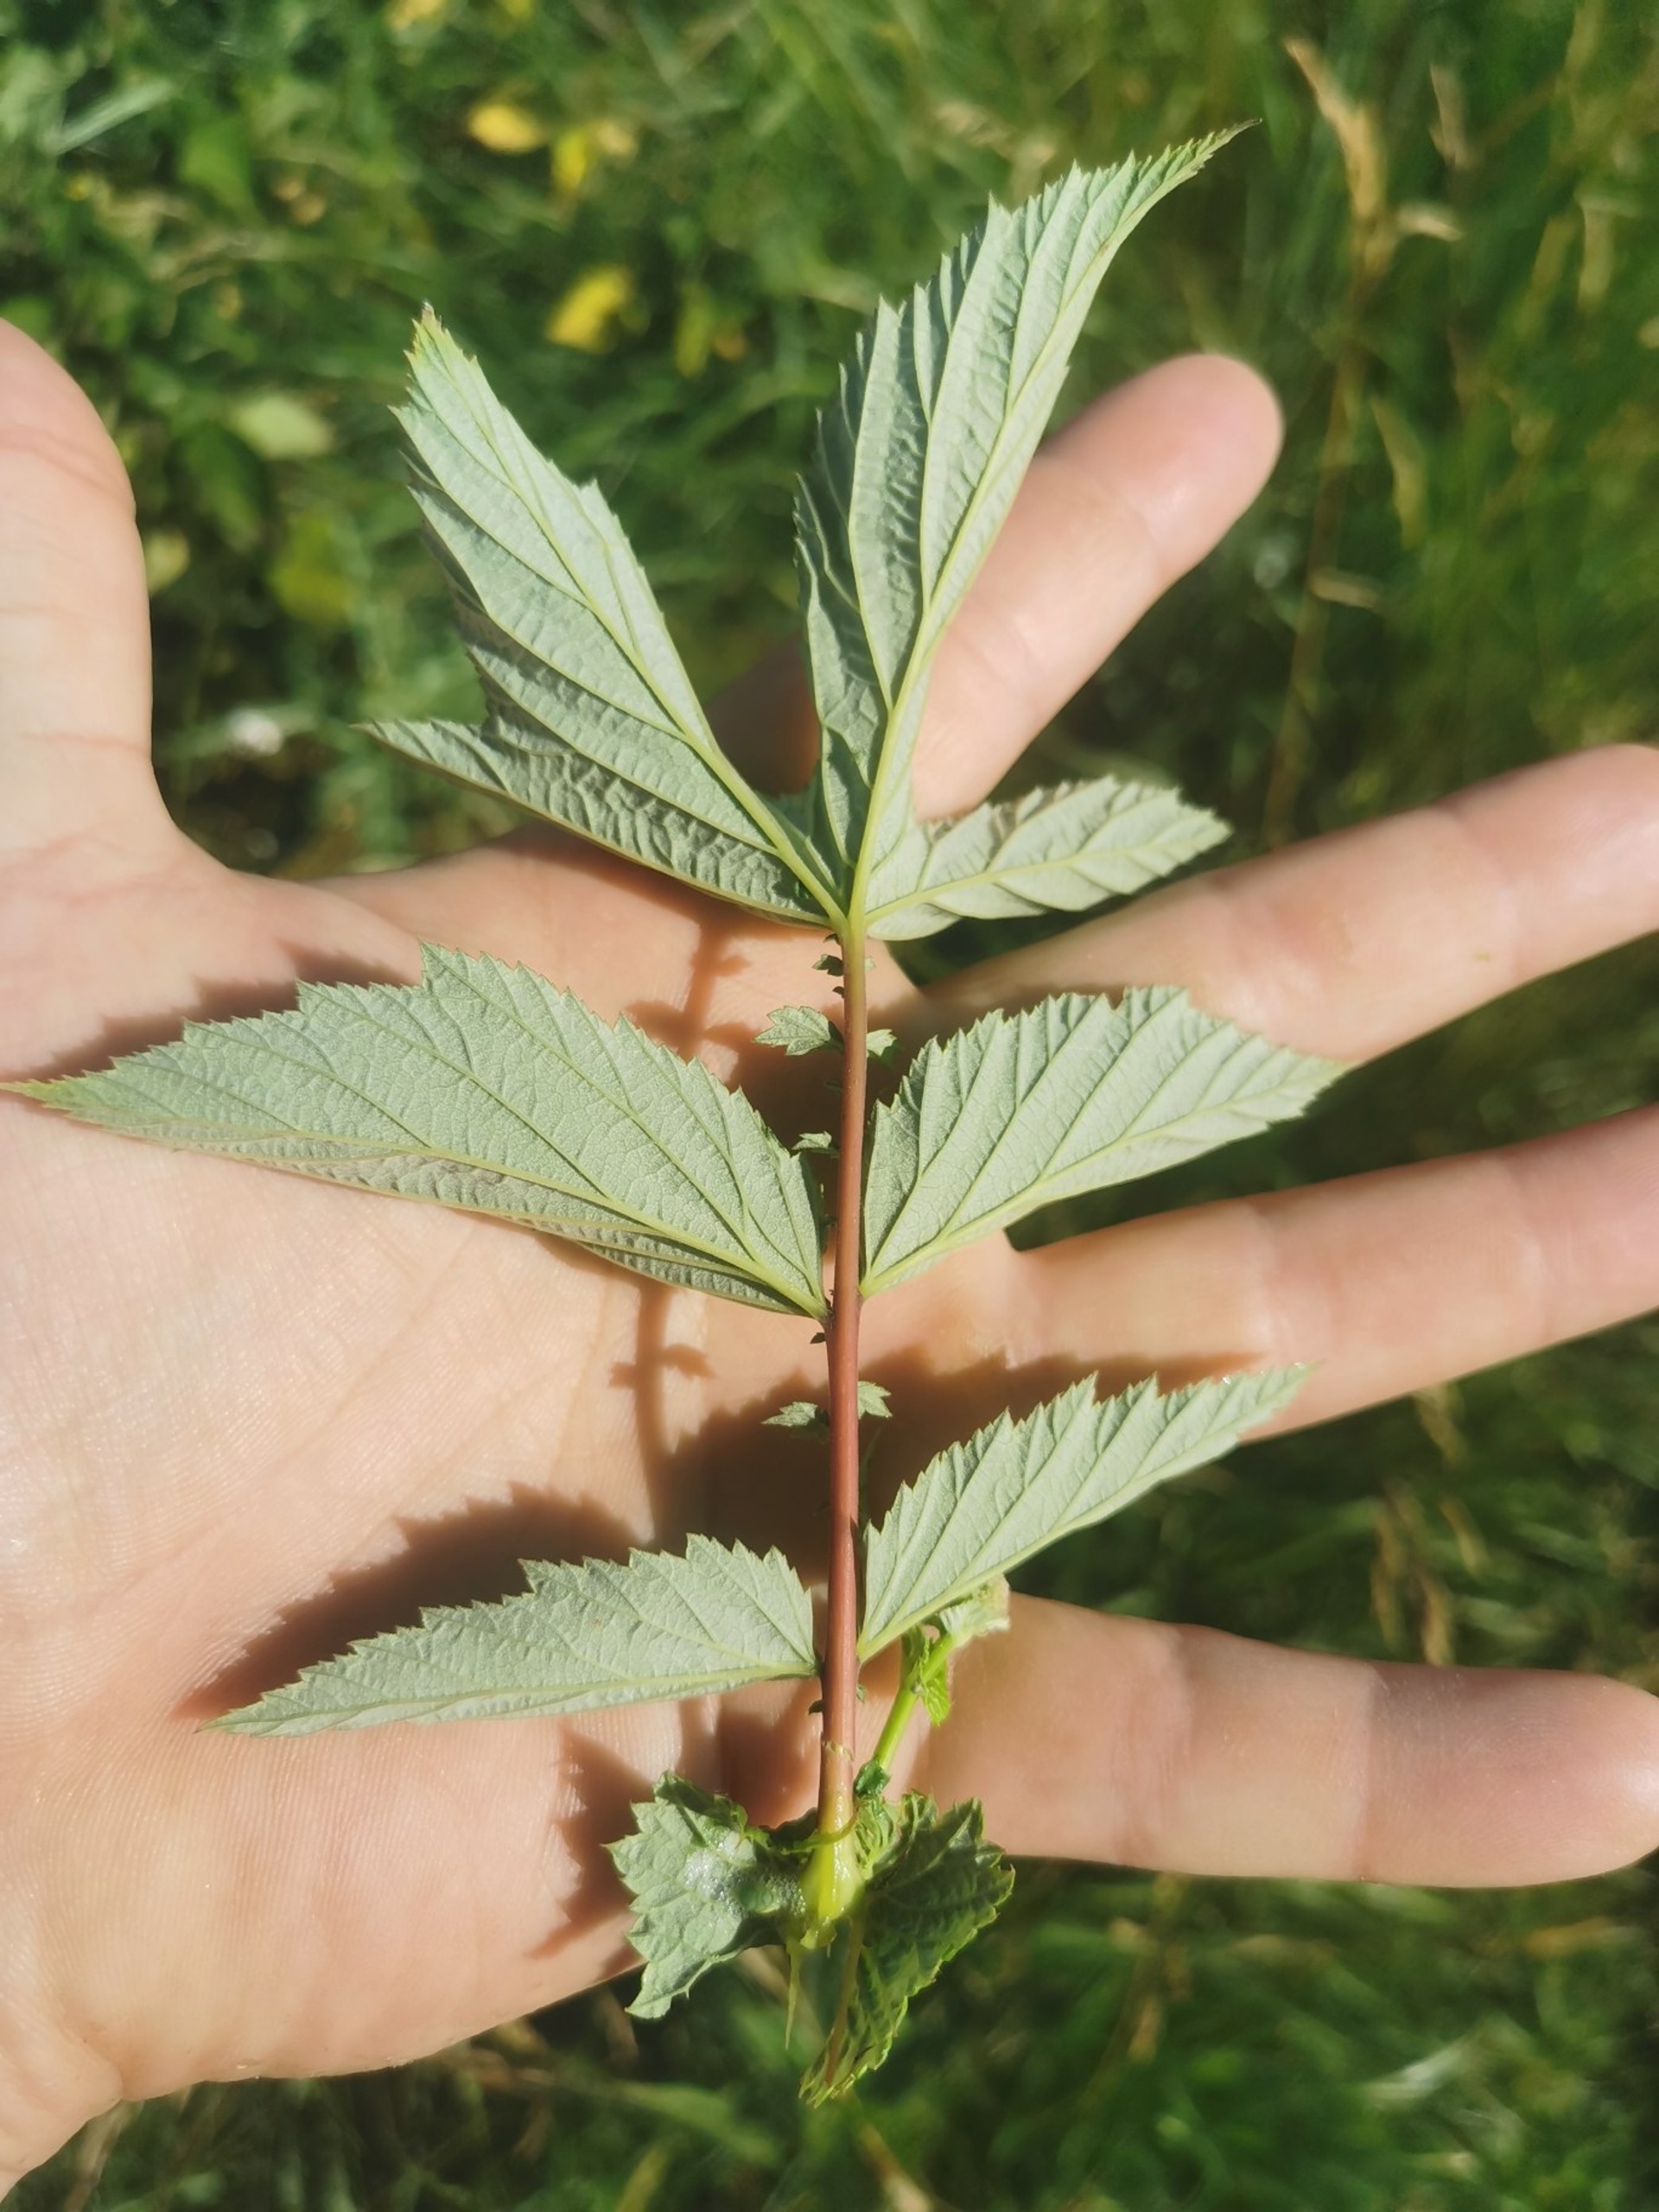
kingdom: Plantae
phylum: Tracheophyta
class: Magnoliopsida
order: Rosales
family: Rosaceae
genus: Filipendula
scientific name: Filipendula ulmaria
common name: Almindelig mjødurt
